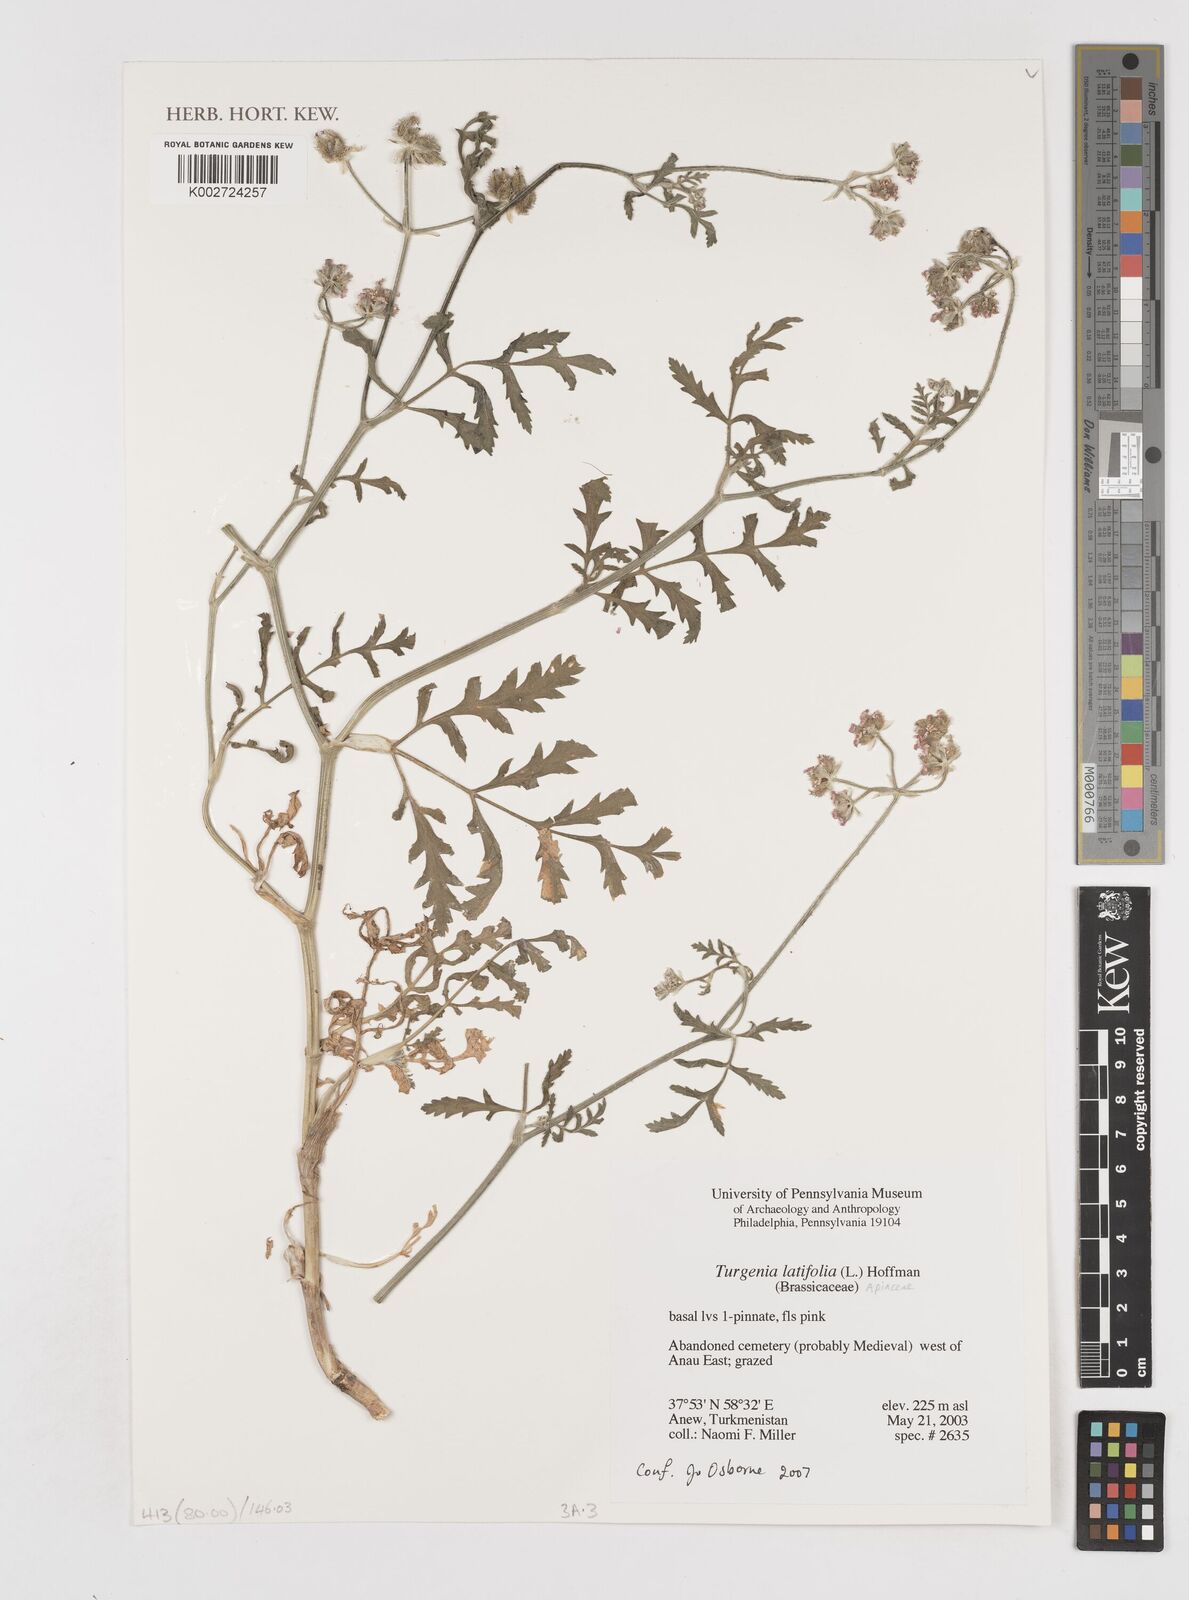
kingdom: Plantae
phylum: Tracheophyta
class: Magnoliopsida
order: Apiales
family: Apiaceae
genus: Turgenia
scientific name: Turgenia latifolia
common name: Greater bur-parsley
